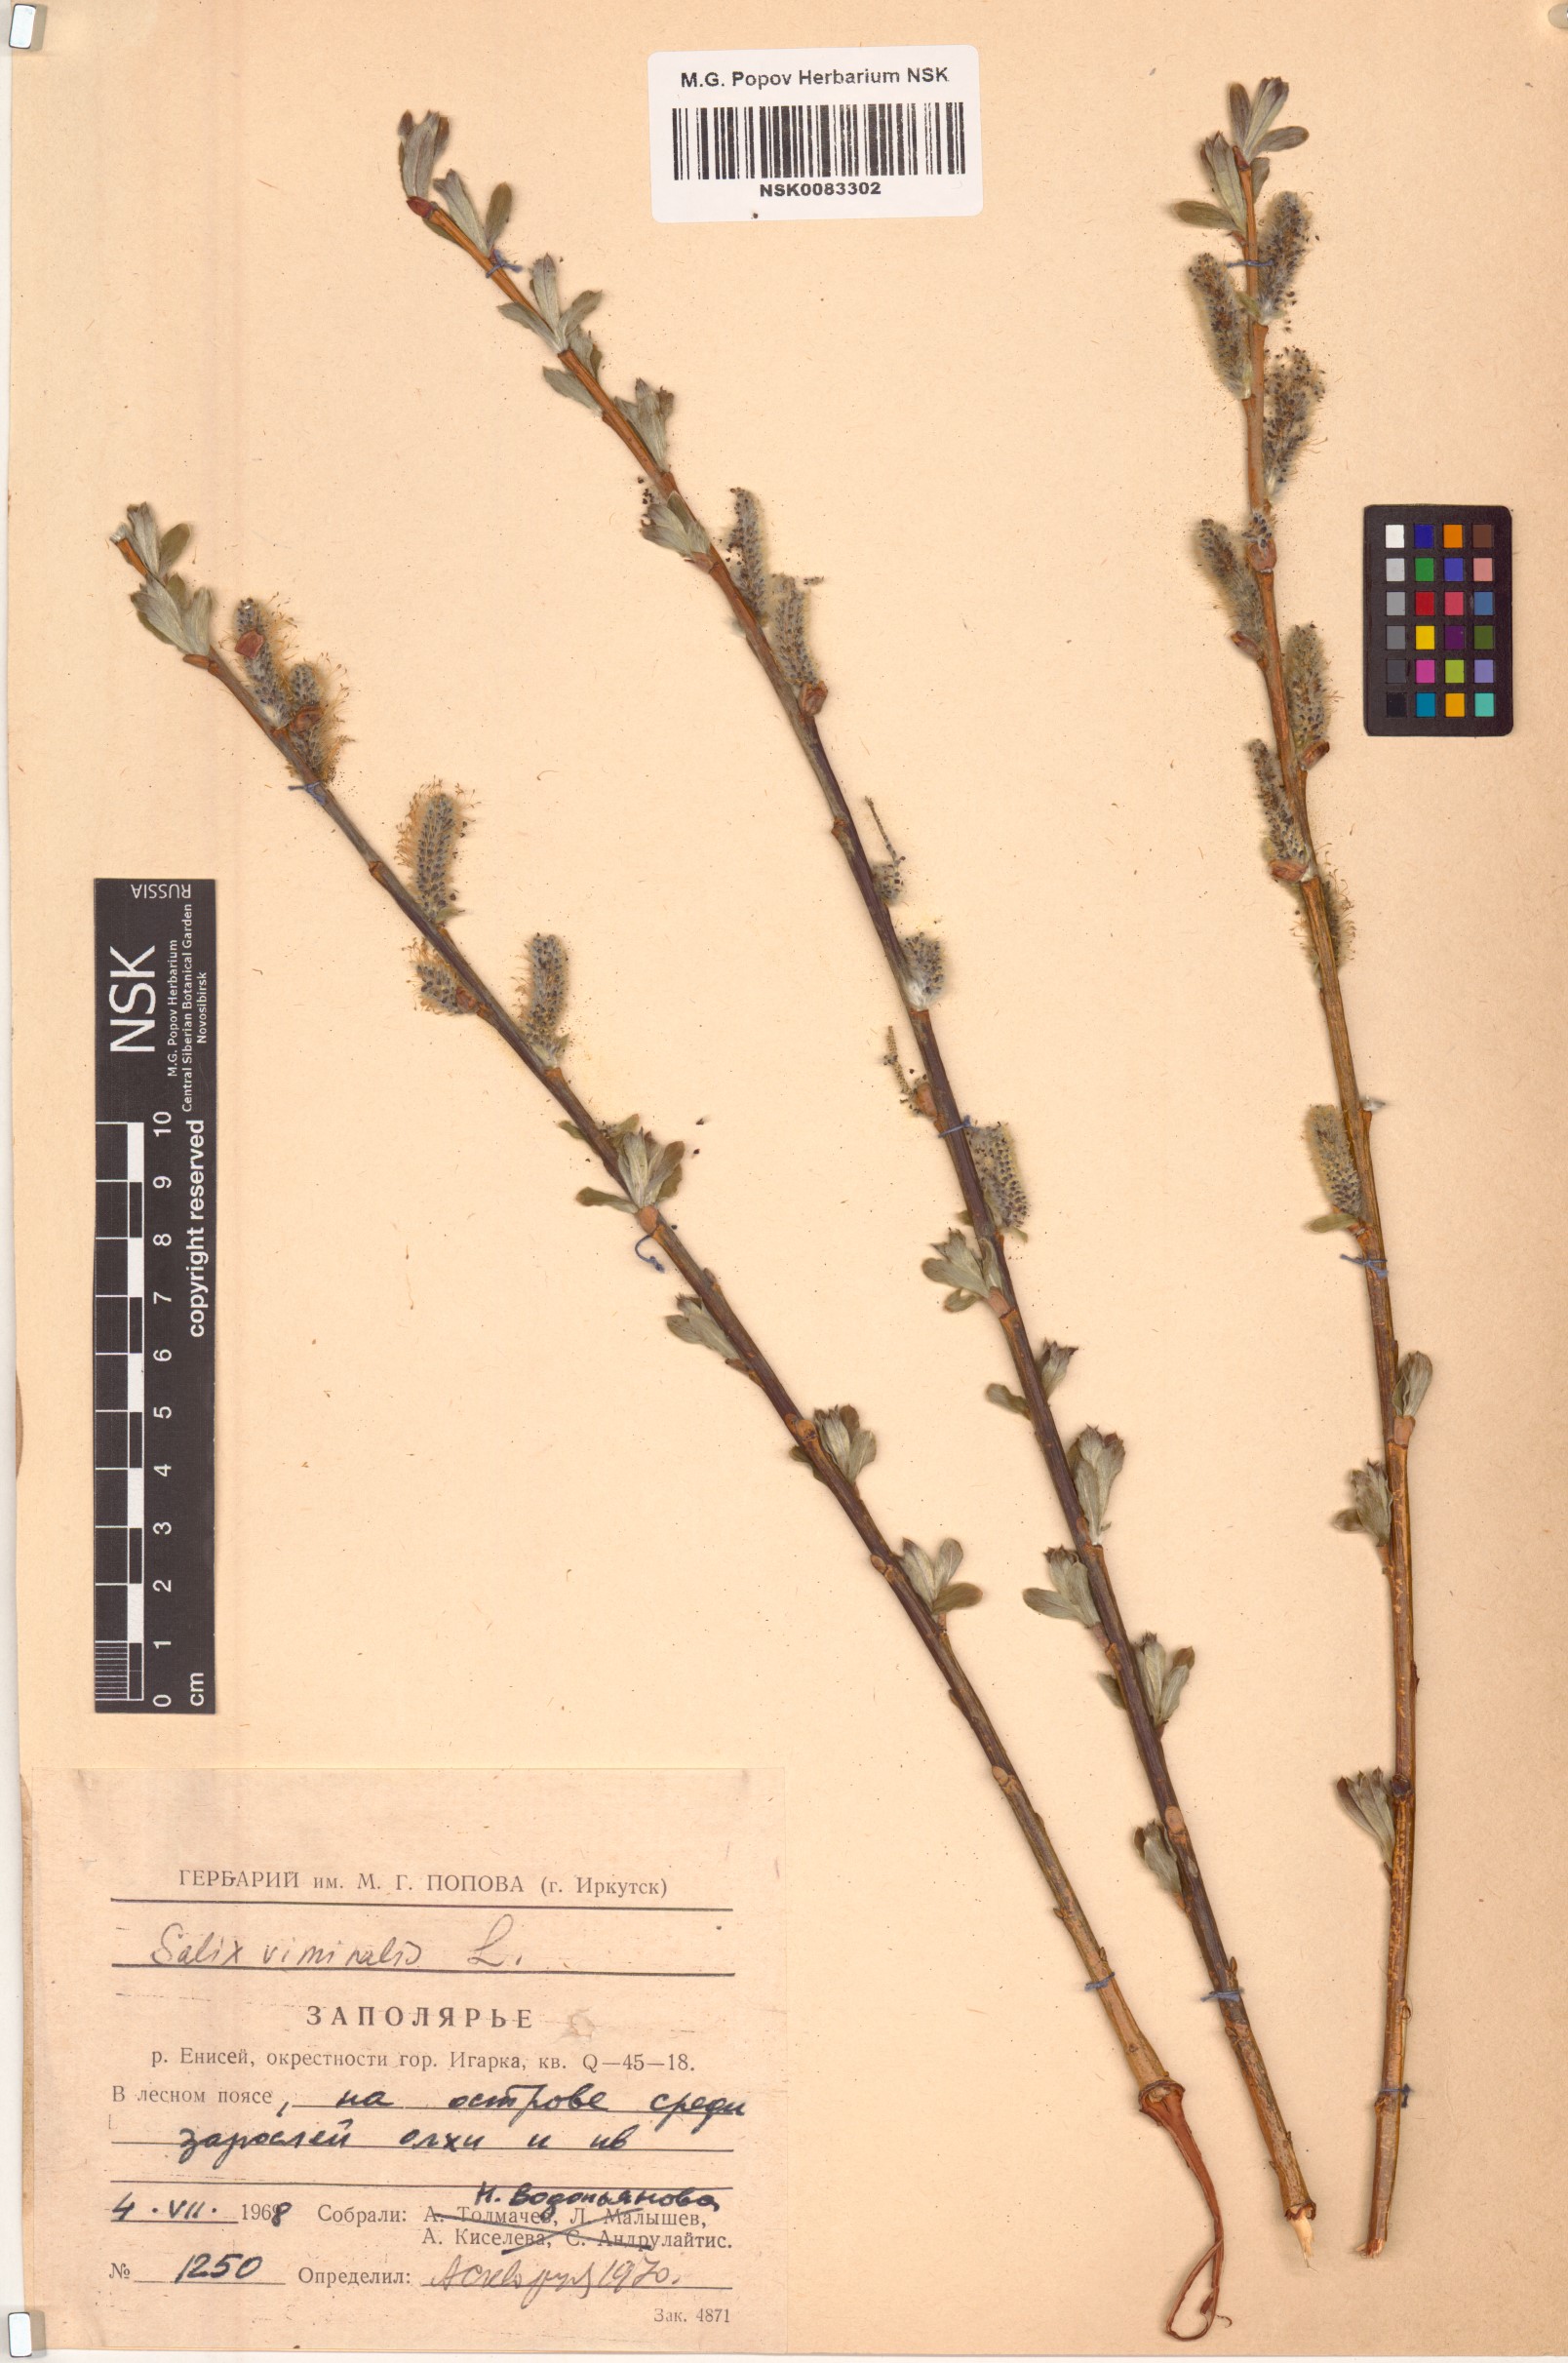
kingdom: Plantae
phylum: Tracheophyta
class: Magnoliopsida
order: Malpighiales
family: Salicaceae
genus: Salix
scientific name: Salix viminalis
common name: Osier
